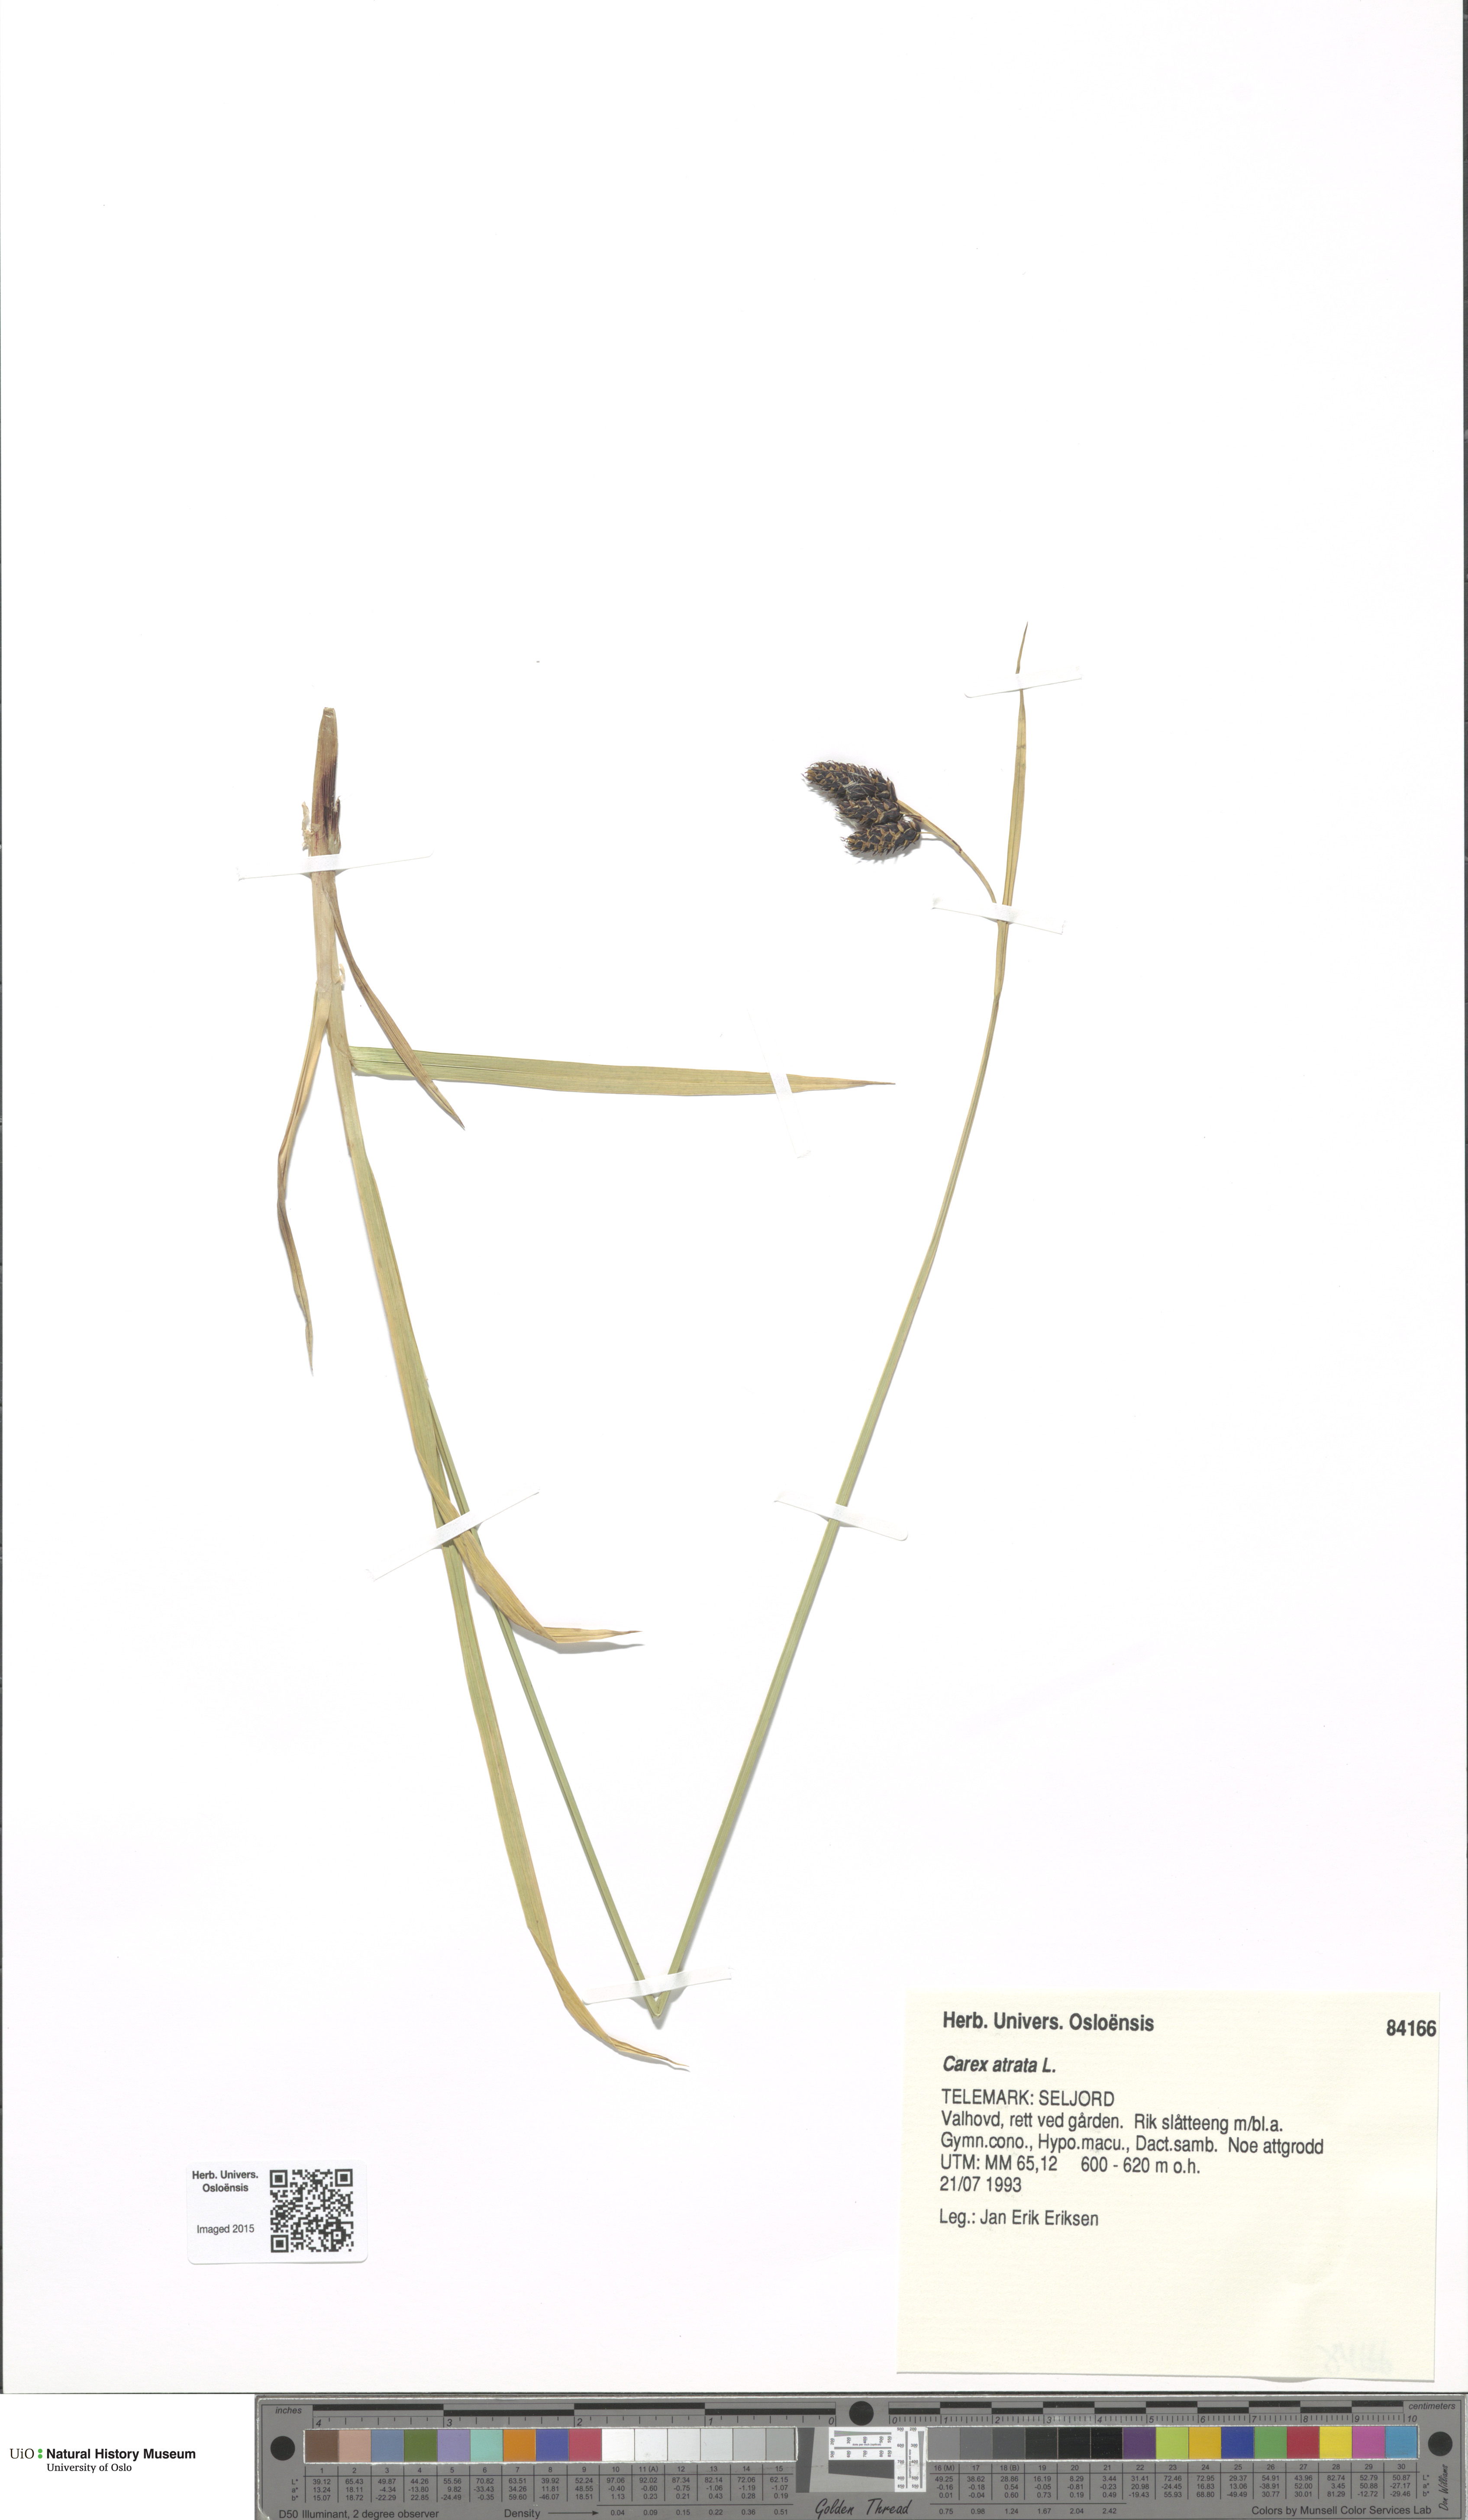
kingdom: Plantae
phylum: Tracheophyta
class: Liliopsida
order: Poales
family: Cyperaceae
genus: Carex
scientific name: Carex atrata
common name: Black alpine sedge
